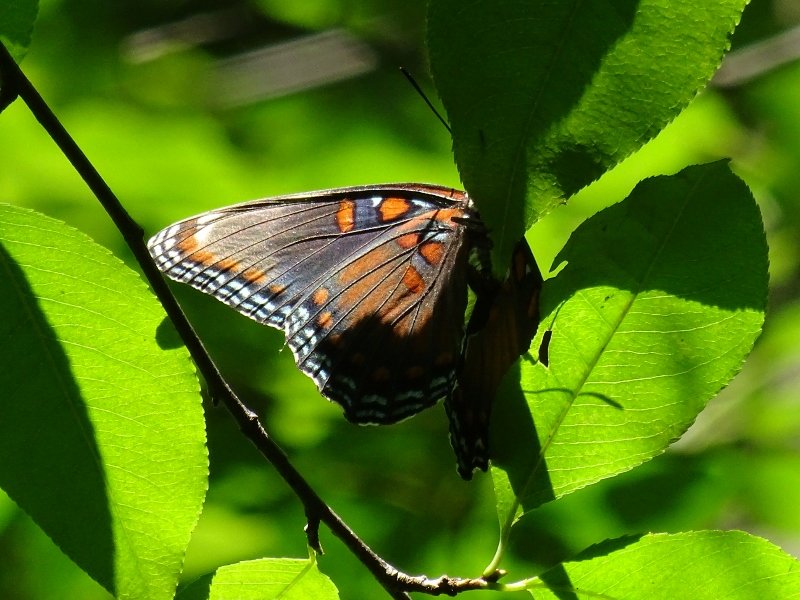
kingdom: Animalia
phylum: Arthropoda
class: Insecta
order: Lepidoptera
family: Nymphalidae
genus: Limenitis
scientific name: Limenitis astyanax
